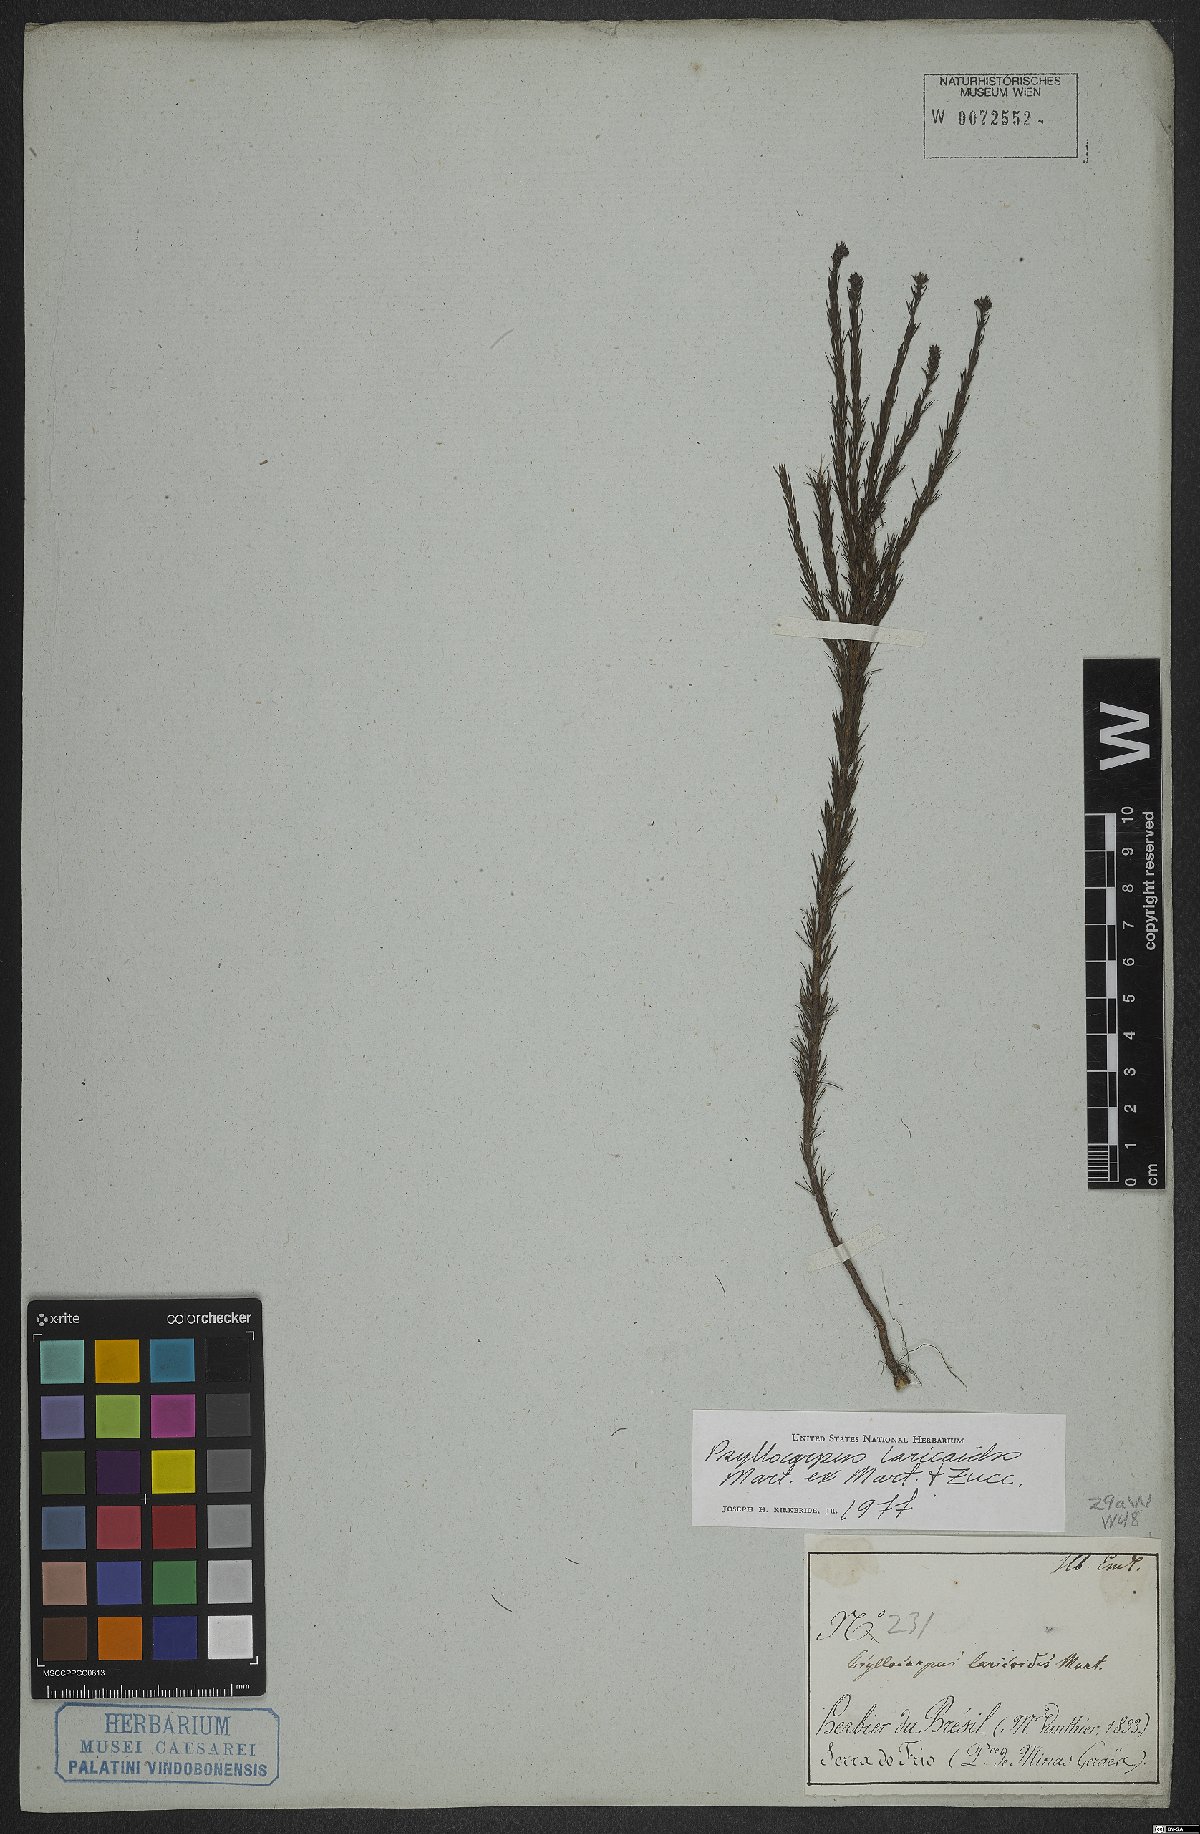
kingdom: Plantae
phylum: Tracheophyta
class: Magnoliopsida
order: Gentianales
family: Rubiaceae
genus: Psyllocarpus
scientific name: Psyllocarpus laricoides
